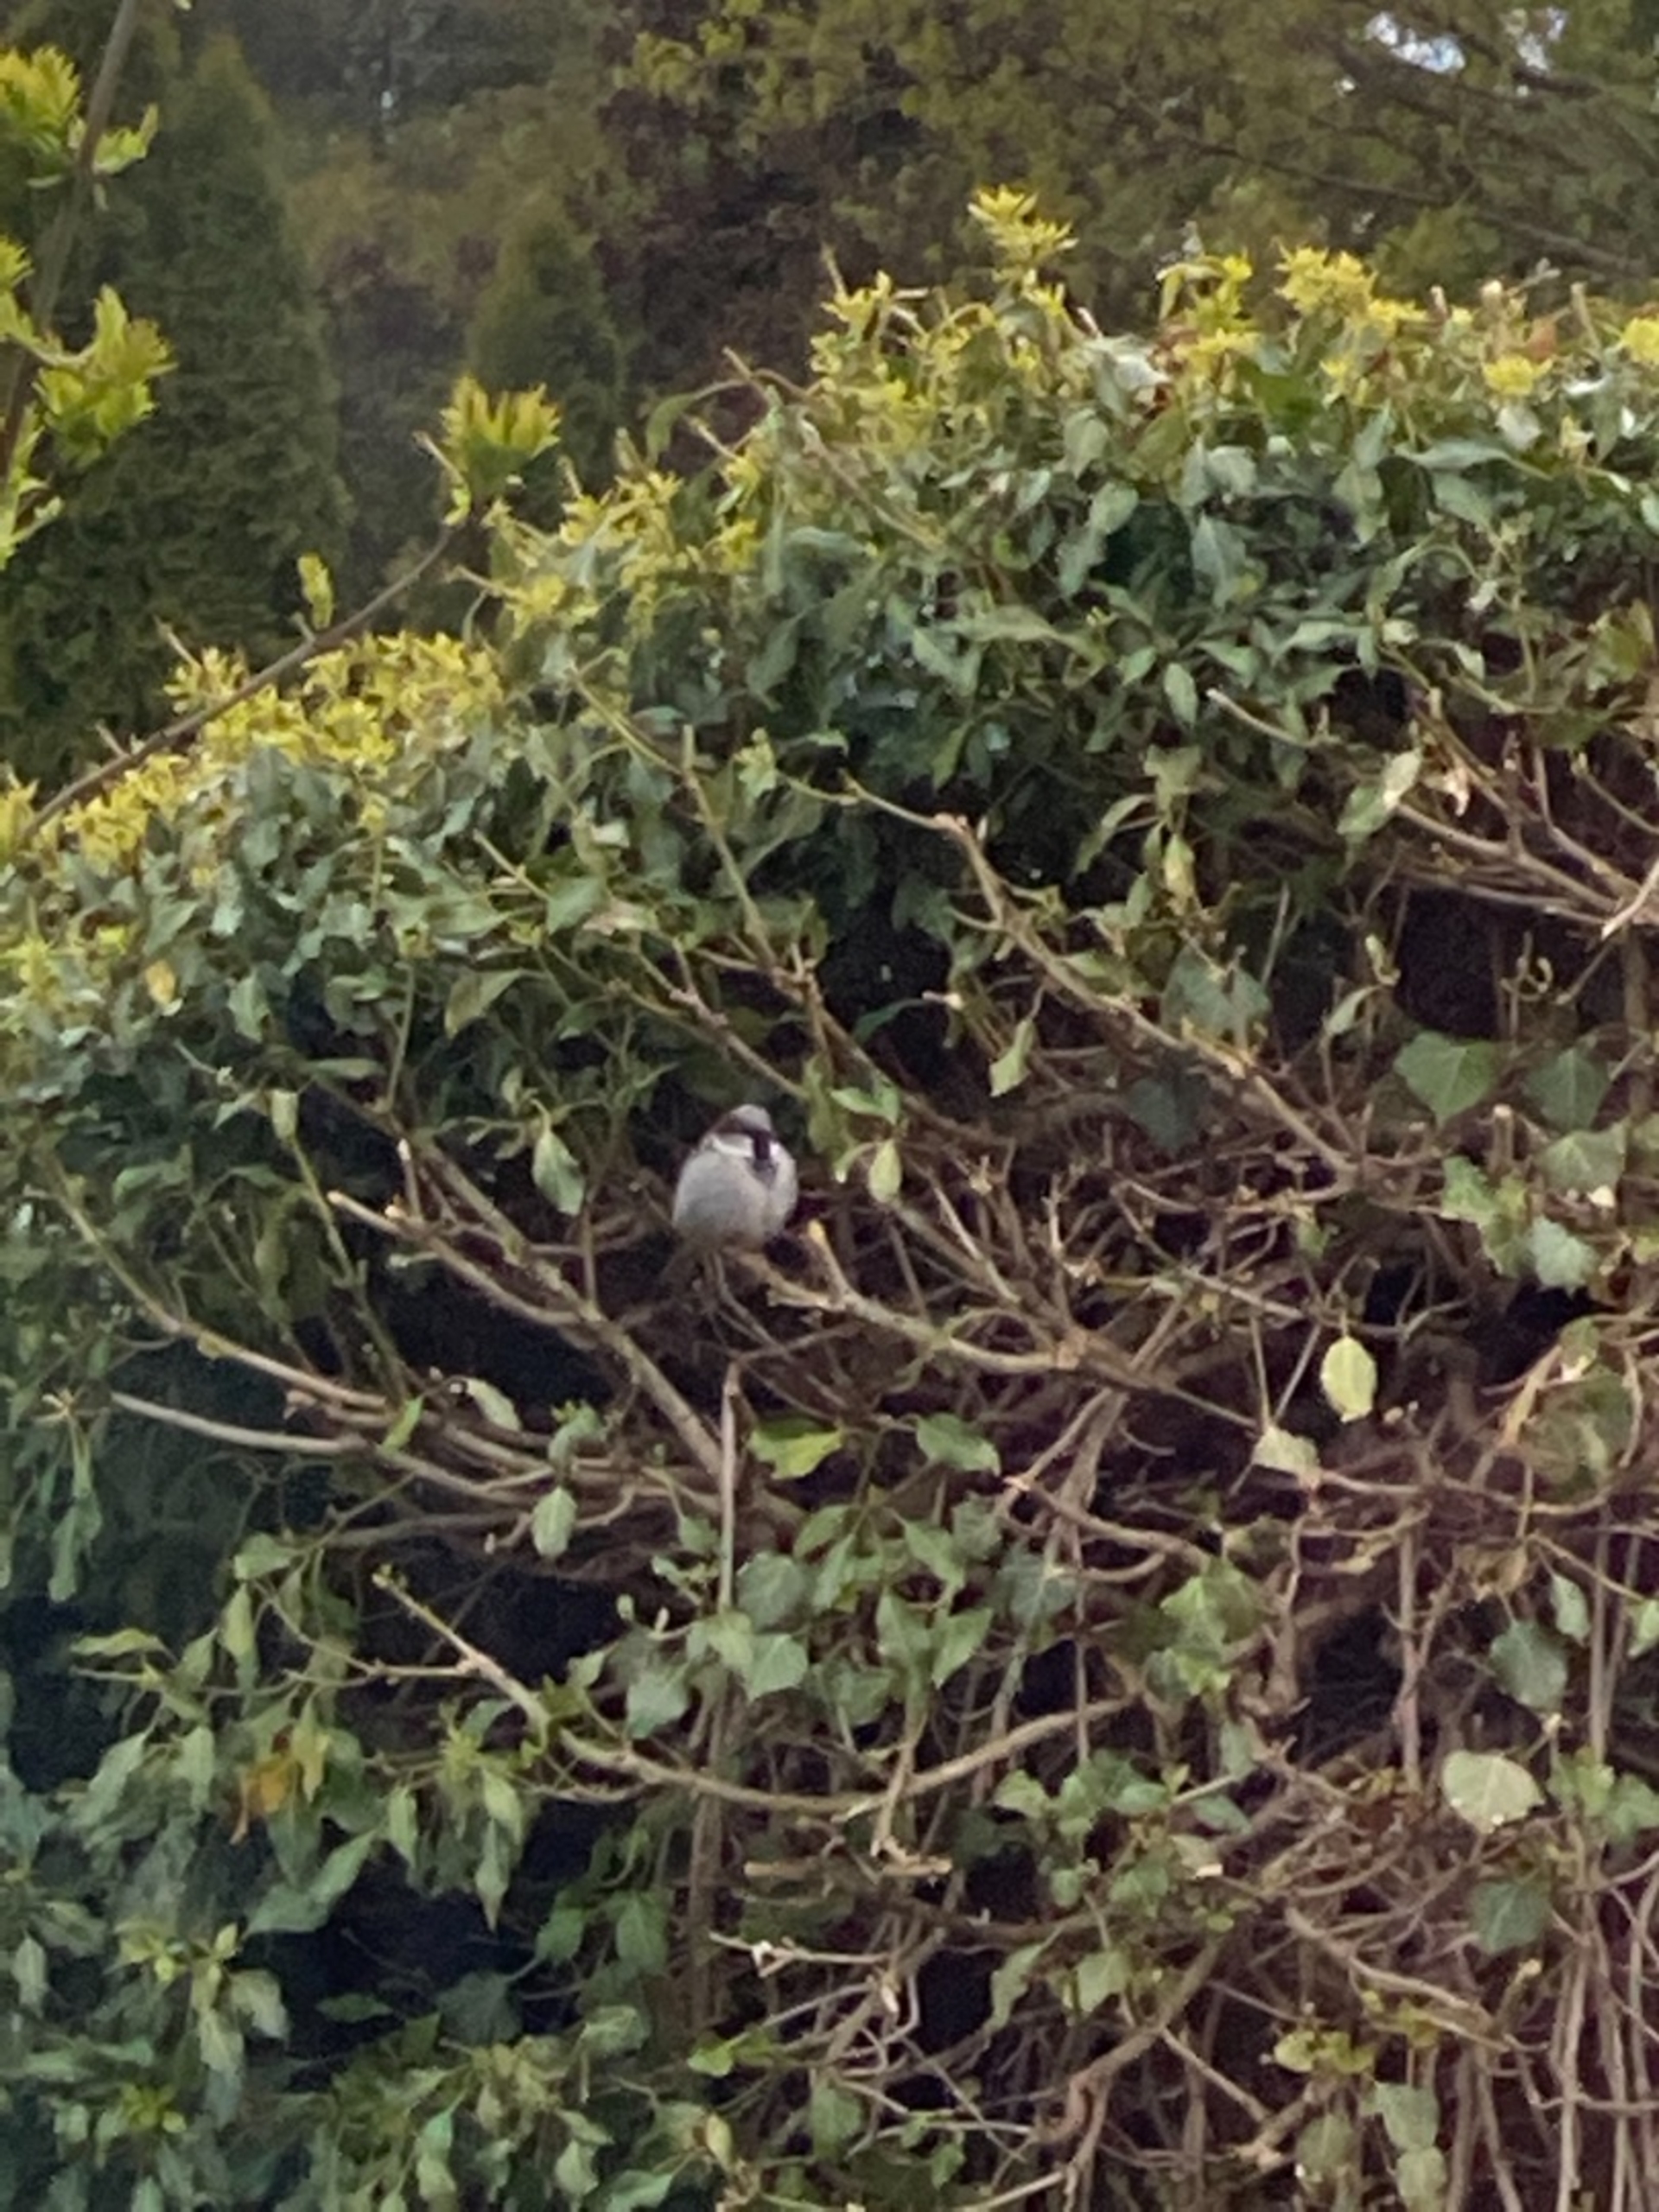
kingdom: Animalia
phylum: Chordata
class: Aves
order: Passeriformes
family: Passeridae
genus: Passer
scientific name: Passer domesticus
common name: Gråspurv
